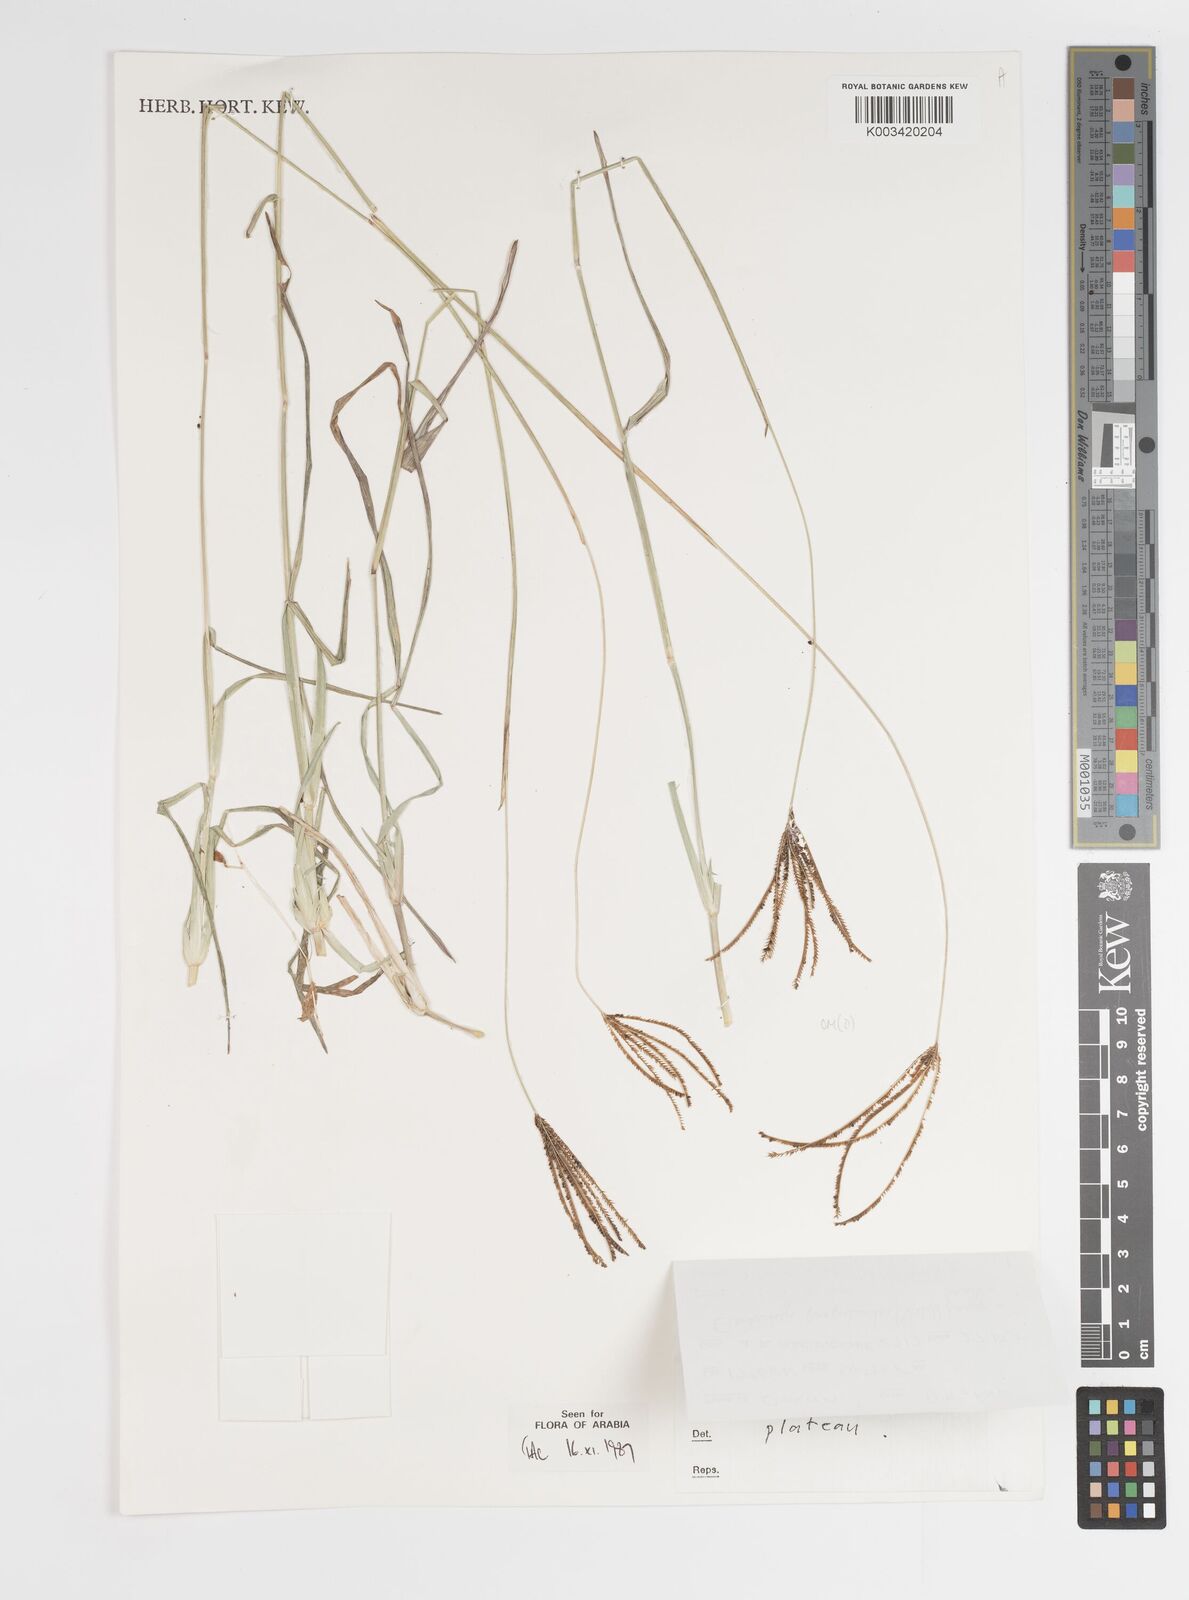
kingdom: Plantae
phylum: Tracheophyta
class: Liliopsida
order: Poales
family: Poaceae
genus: Eustachys
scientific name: Eustachys paspaloides
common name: Caribbean fingergrass
